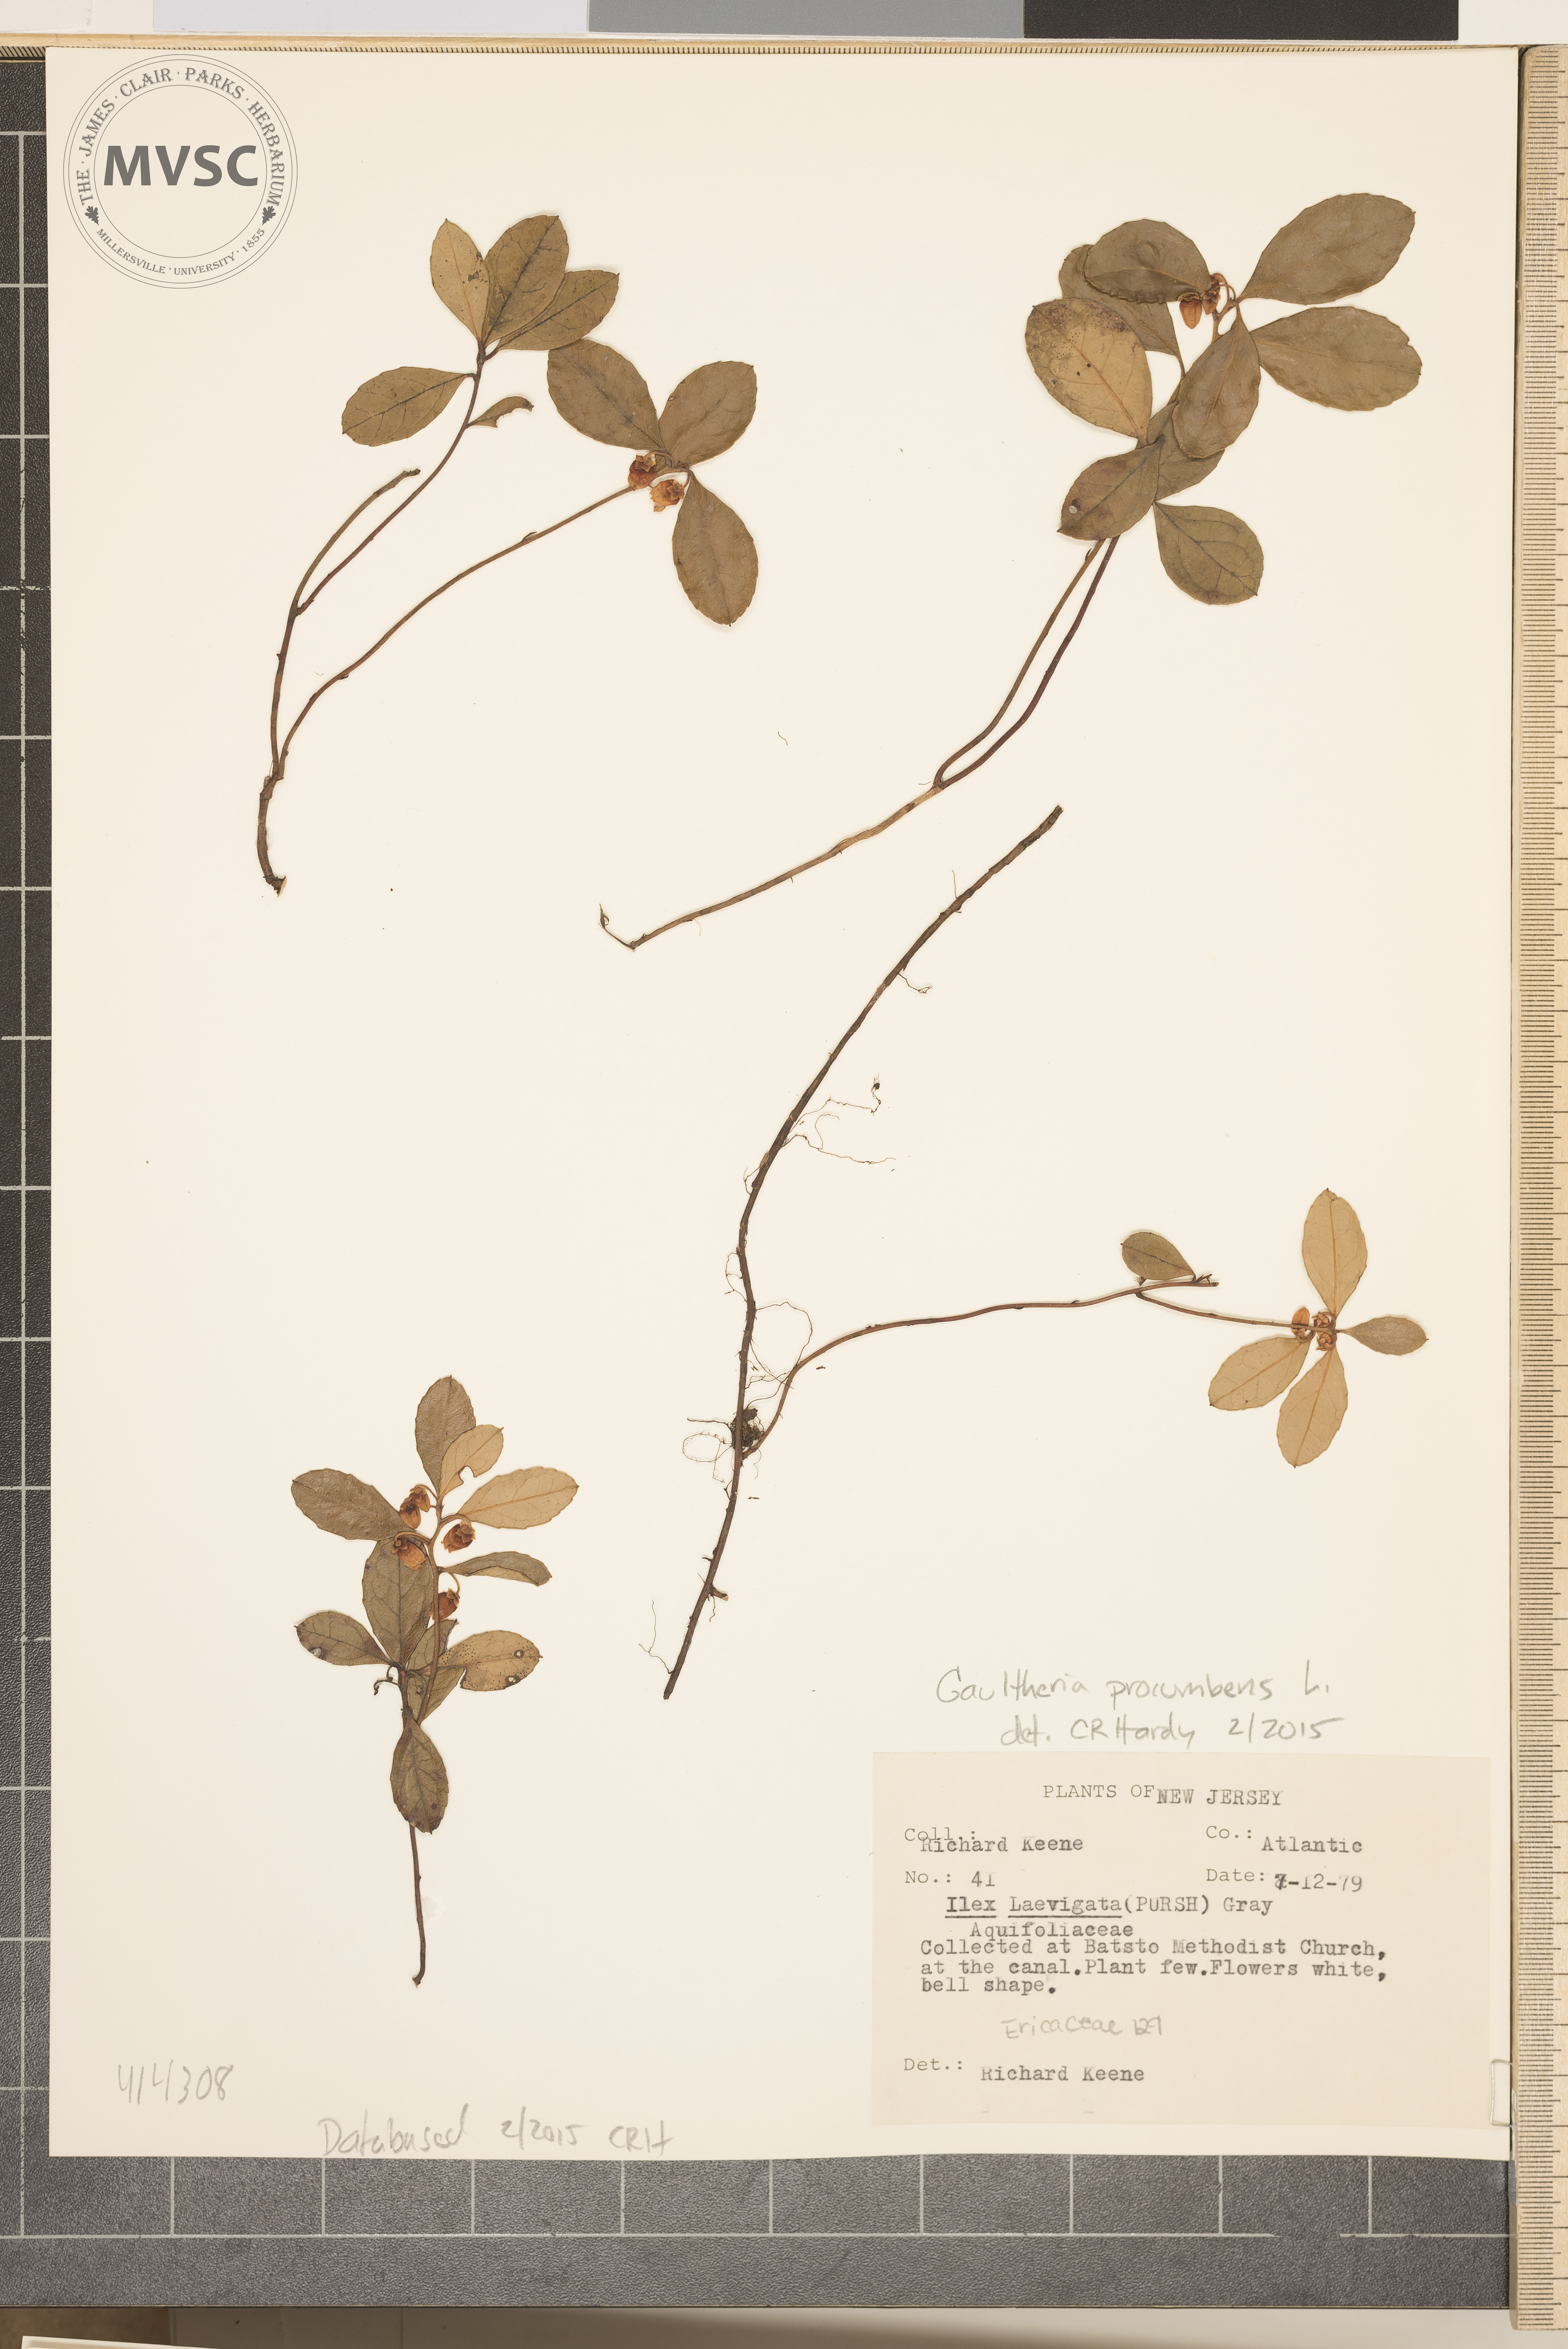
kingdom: Plantae
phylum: Tracheophyta
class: Magnoliopsida
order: Ericales
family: Ericaceae
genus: Gaultheria
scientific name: Gaultheria procumbens
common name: Teaberry
